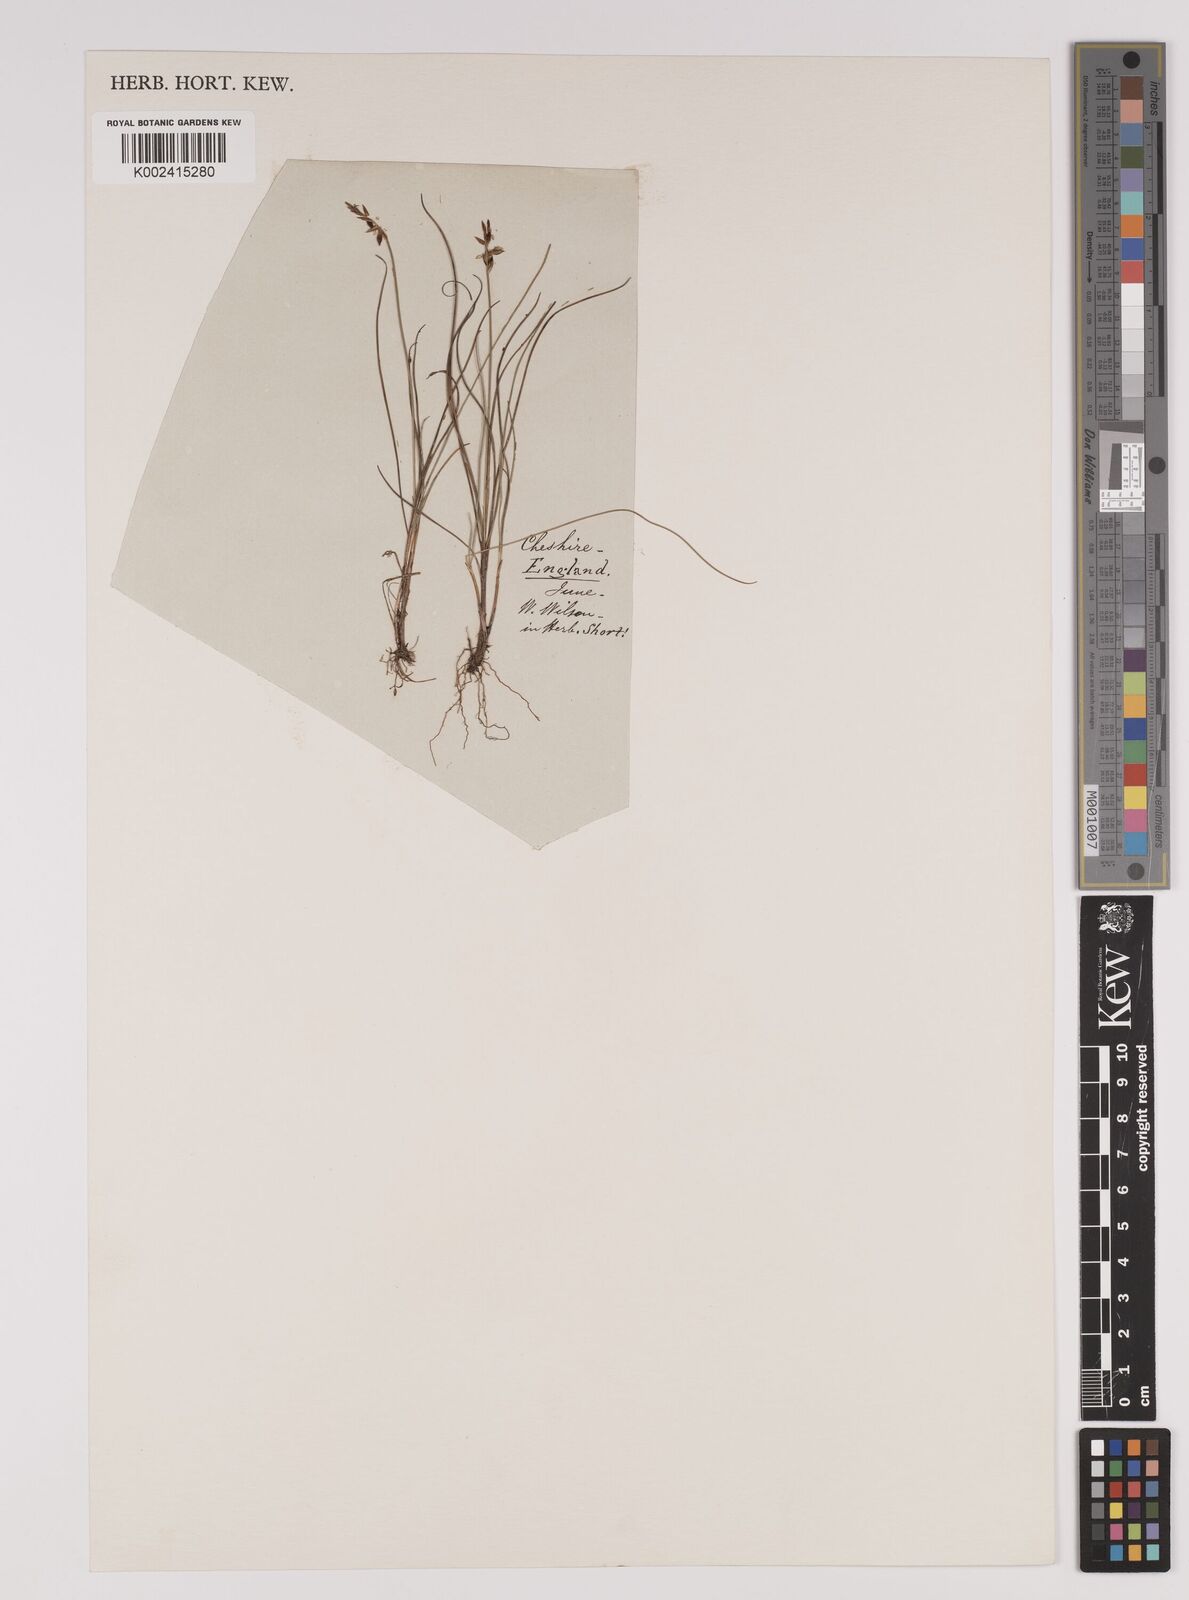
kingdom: Plantae
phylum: Tracheophyta
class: Liliopsida
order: Poales
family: Cyperaceae
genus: Carex
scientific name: Carex pulicaris
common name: Flea sedge
